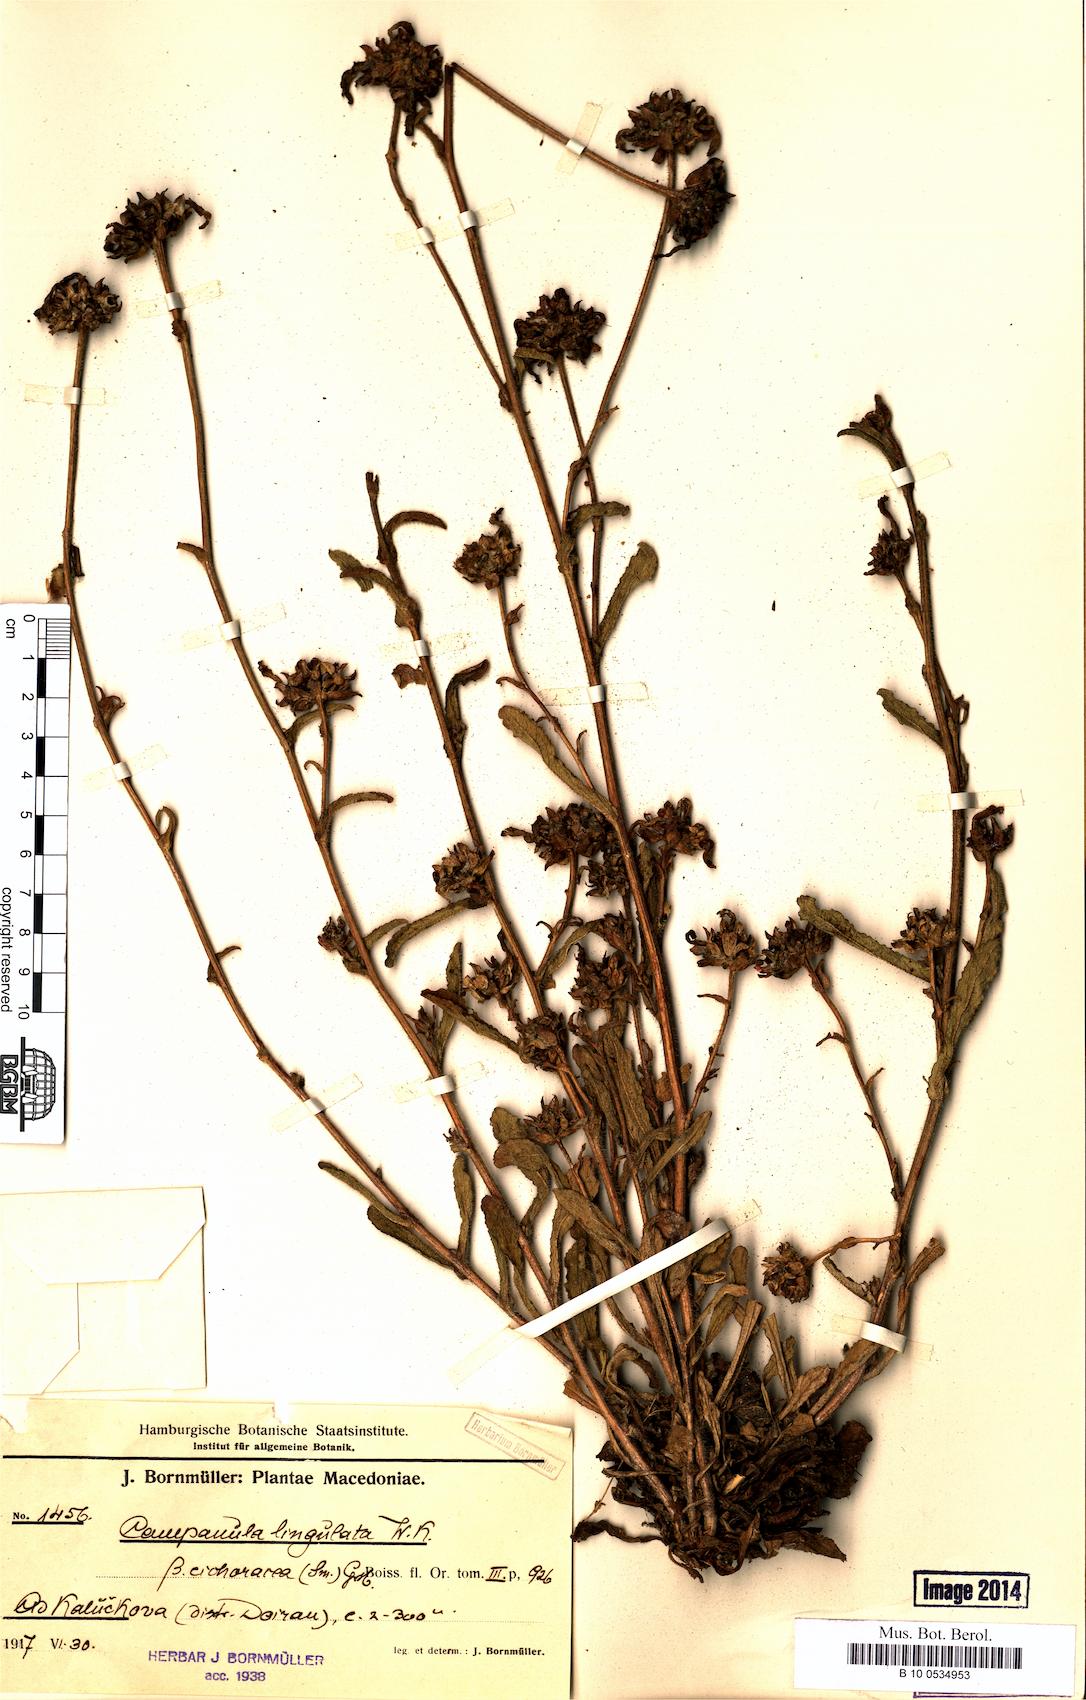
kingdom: Plantae
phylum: Tracheophyta
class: Magnoliopsida
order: Asterales
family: Campanulaceae
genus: Campanula
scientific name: Campanula lingulata
